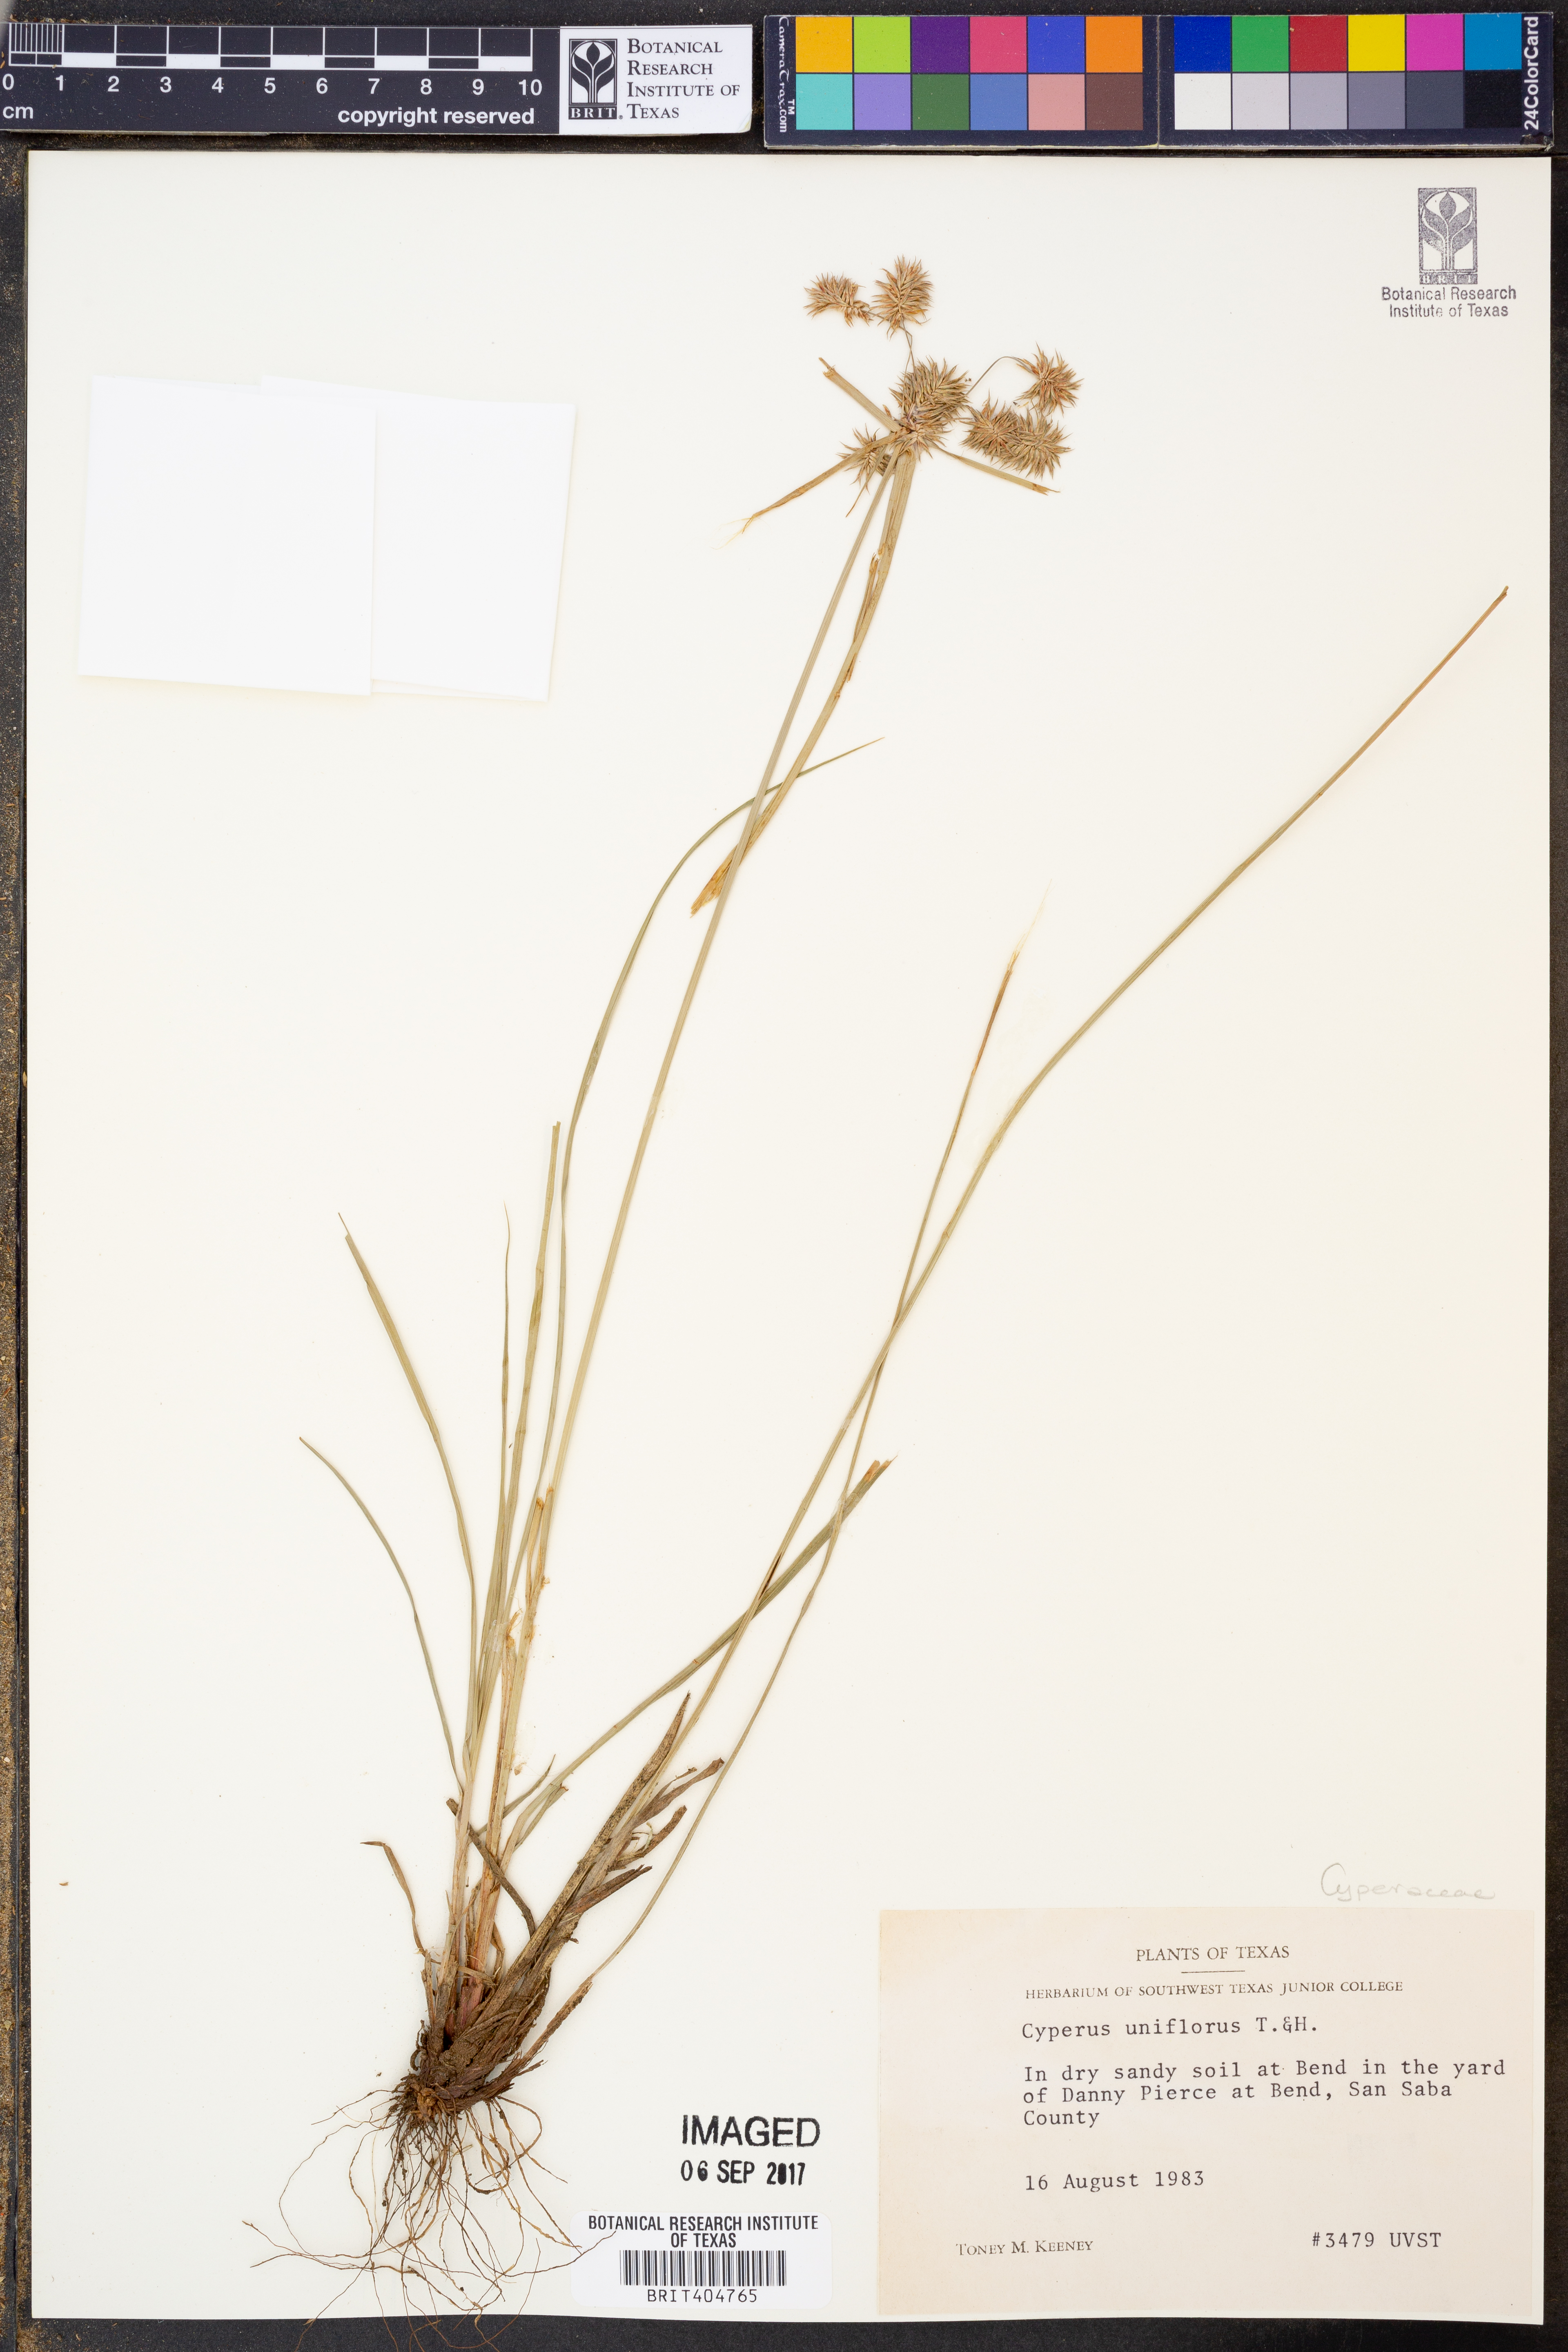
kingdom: Plantae
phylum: Tracheophyta
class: Liliopsida
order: Poales
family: Cyperaceae
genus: Cyperus
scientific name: Cyperus retroflexus
